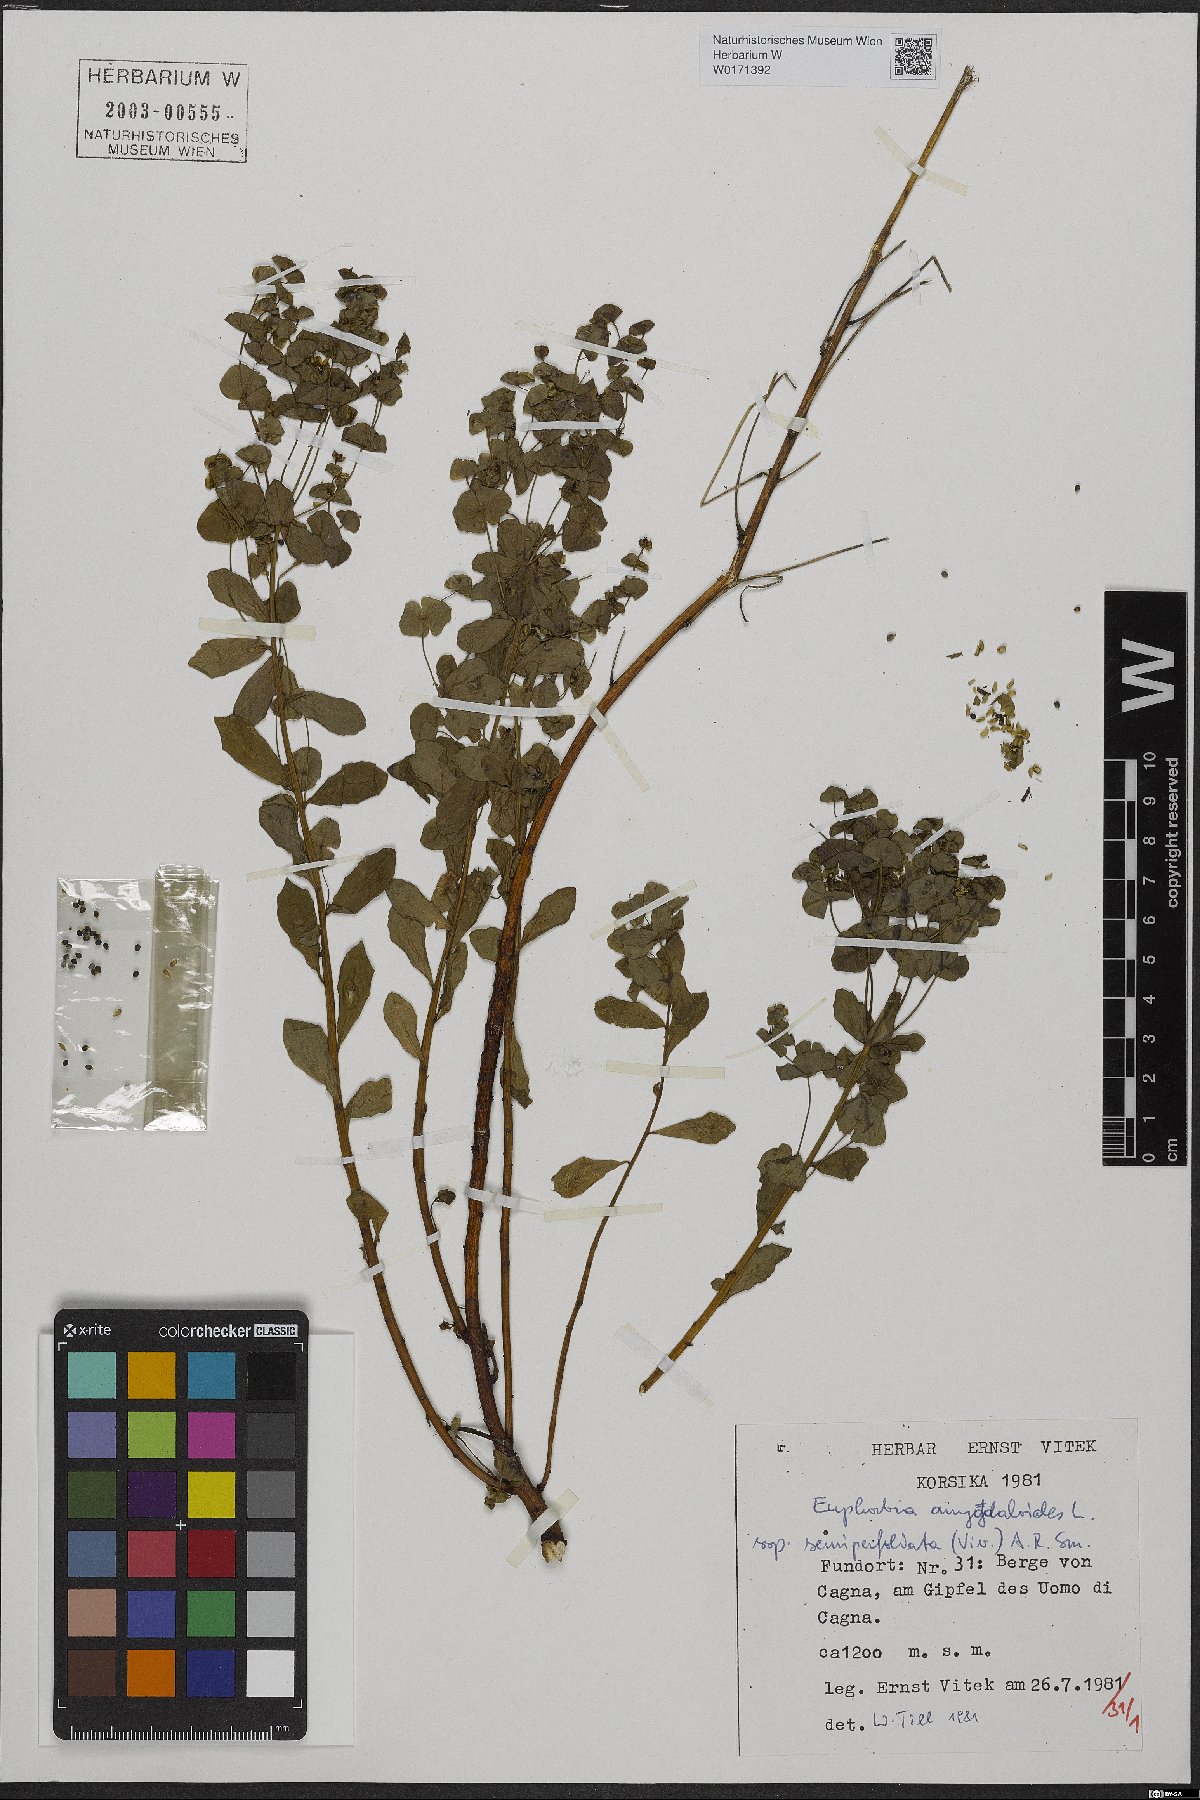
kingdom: Plantae
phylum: Tracheophyta
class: Magnoliopsida
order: Malpighiales
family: Euphorbiaceae
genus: Euphorbia
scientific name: Euphorbia semiperfoliata
